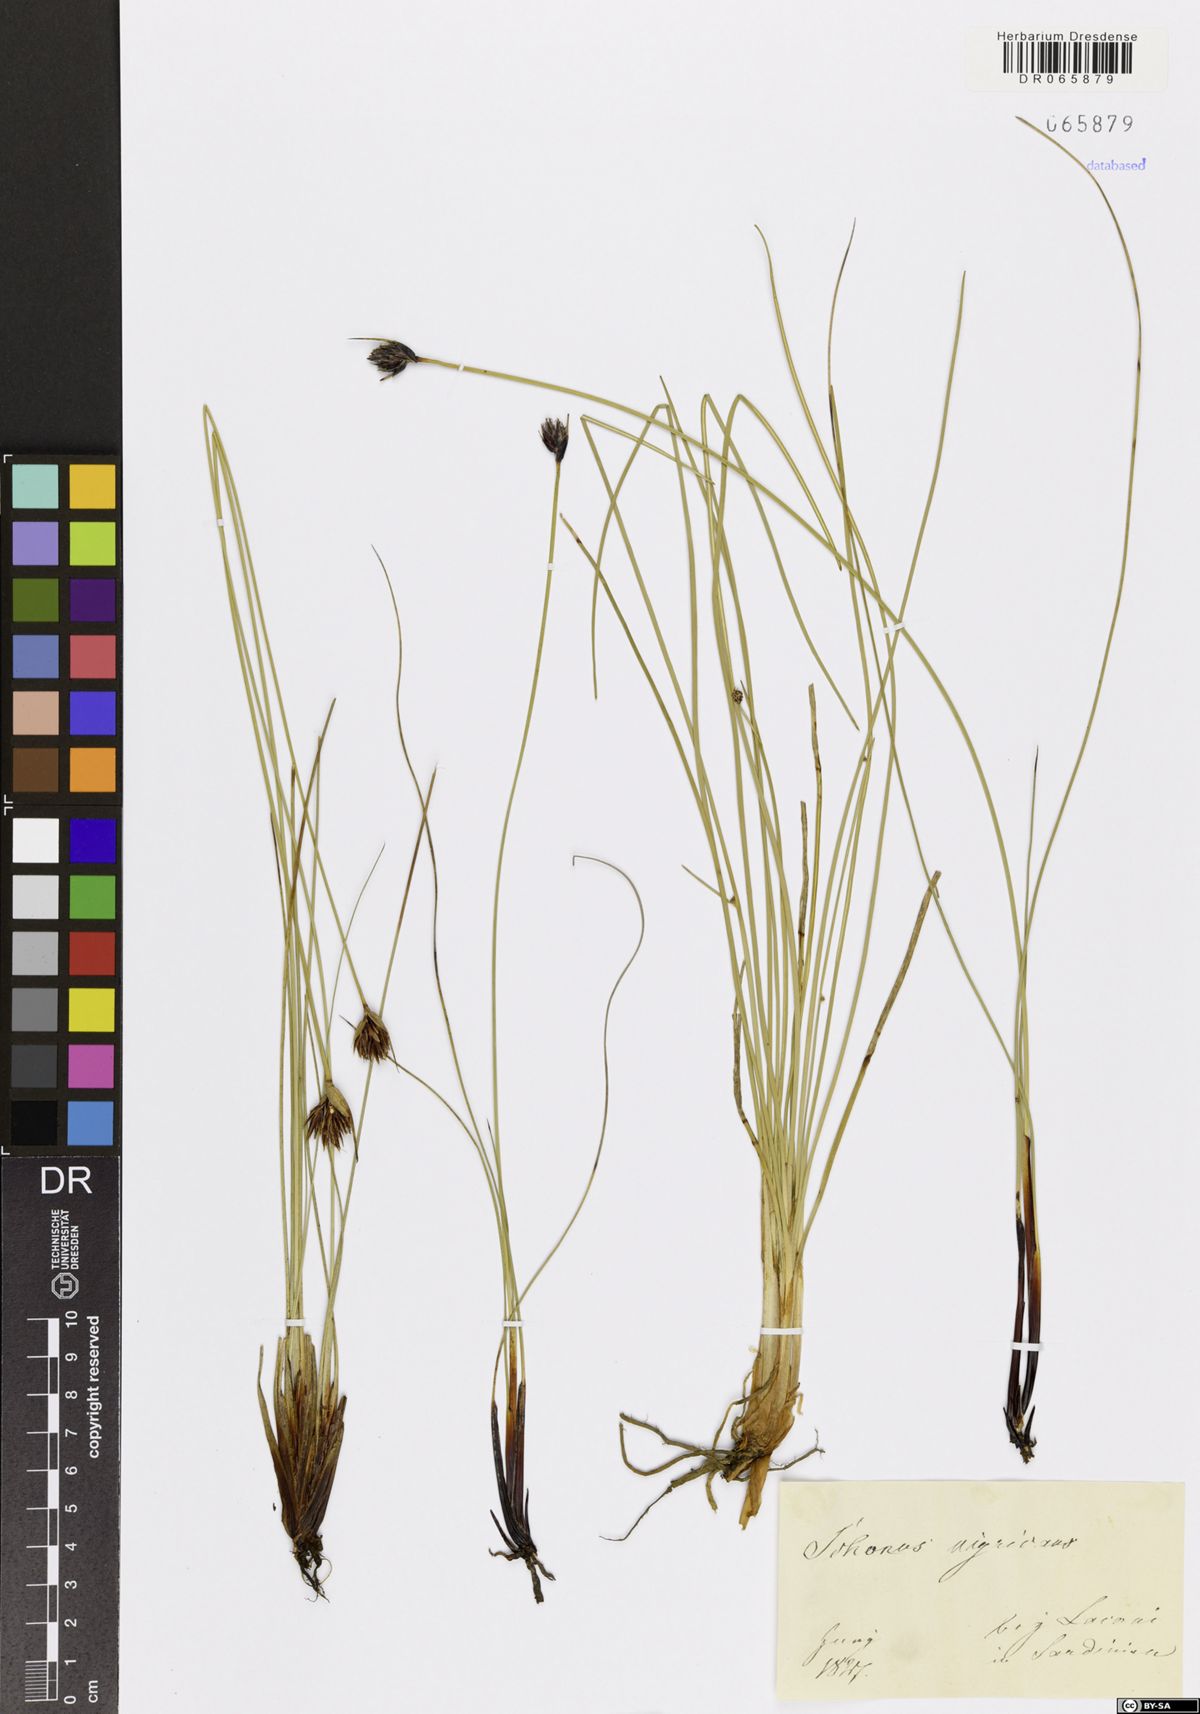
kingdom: Plantae
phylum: Tracheophyta
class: Liliopsida
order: Poales
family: Cyperaceae
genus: Schoenus
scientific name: Schoenus nigricans
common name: Black bog-rush
